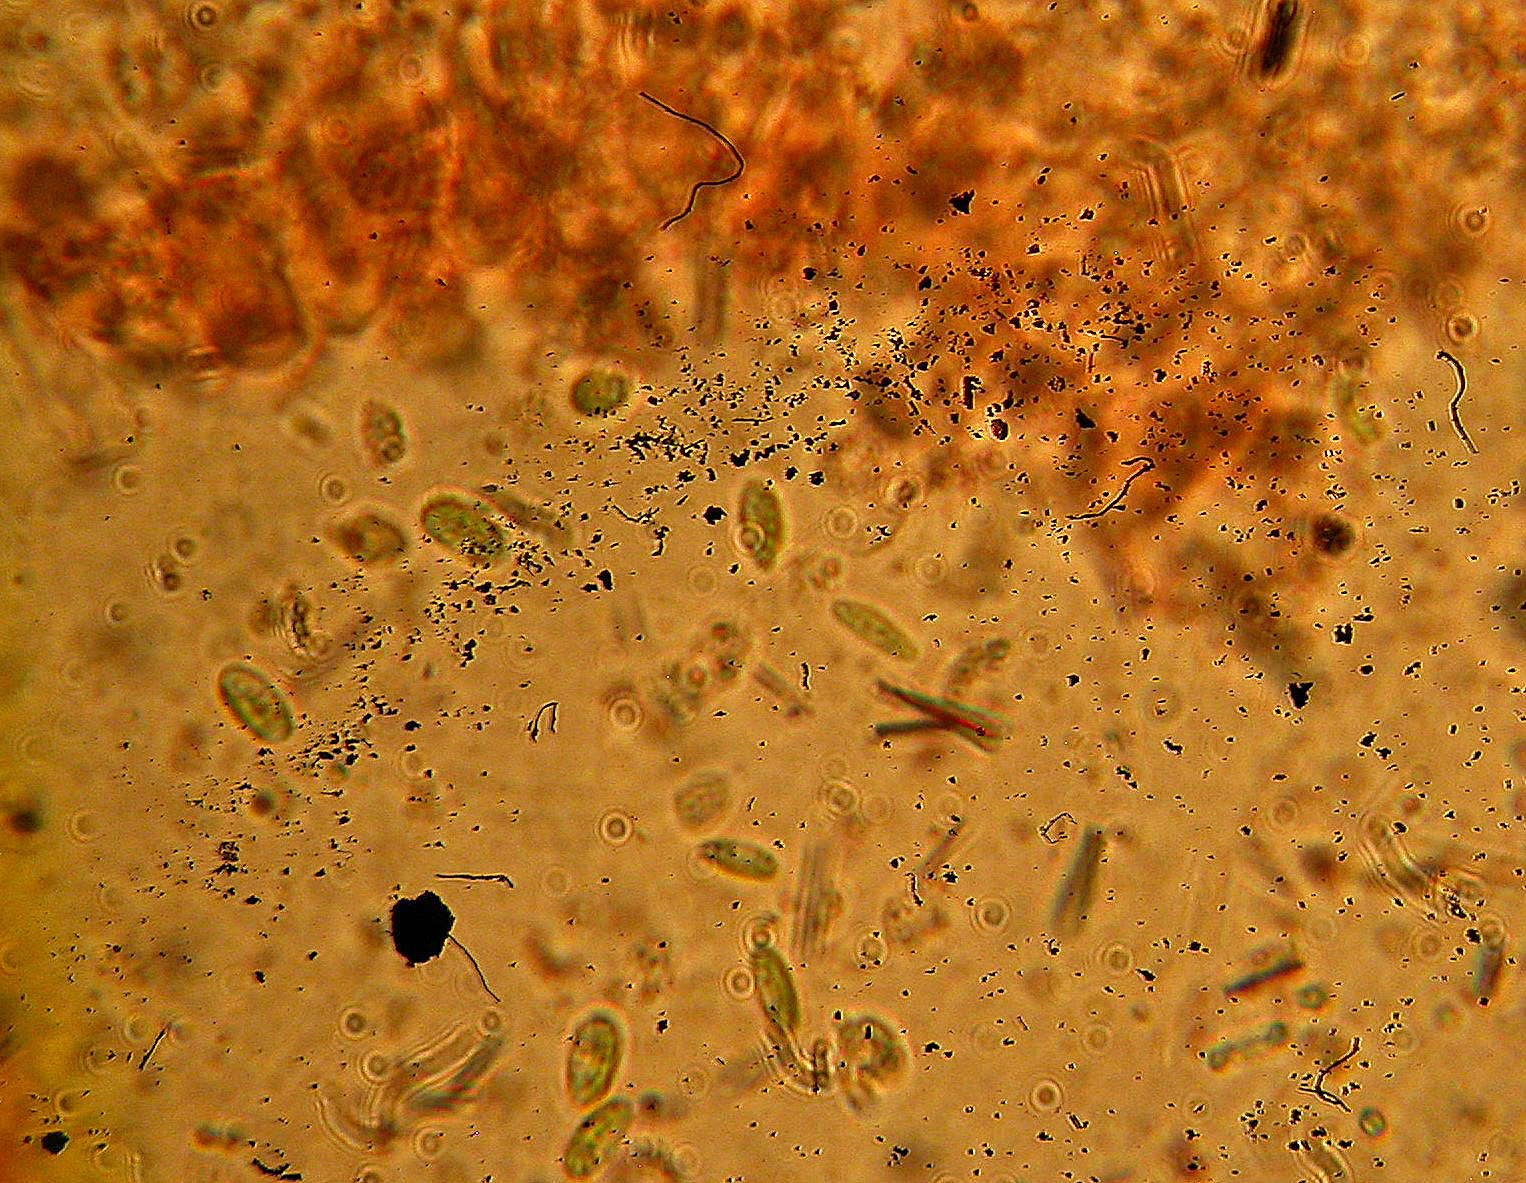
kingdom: Fungi
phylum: Basidiomycota
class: Agaricomycetes
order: Russulales
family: Xenasmataceae
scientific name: Xenasmataceae
